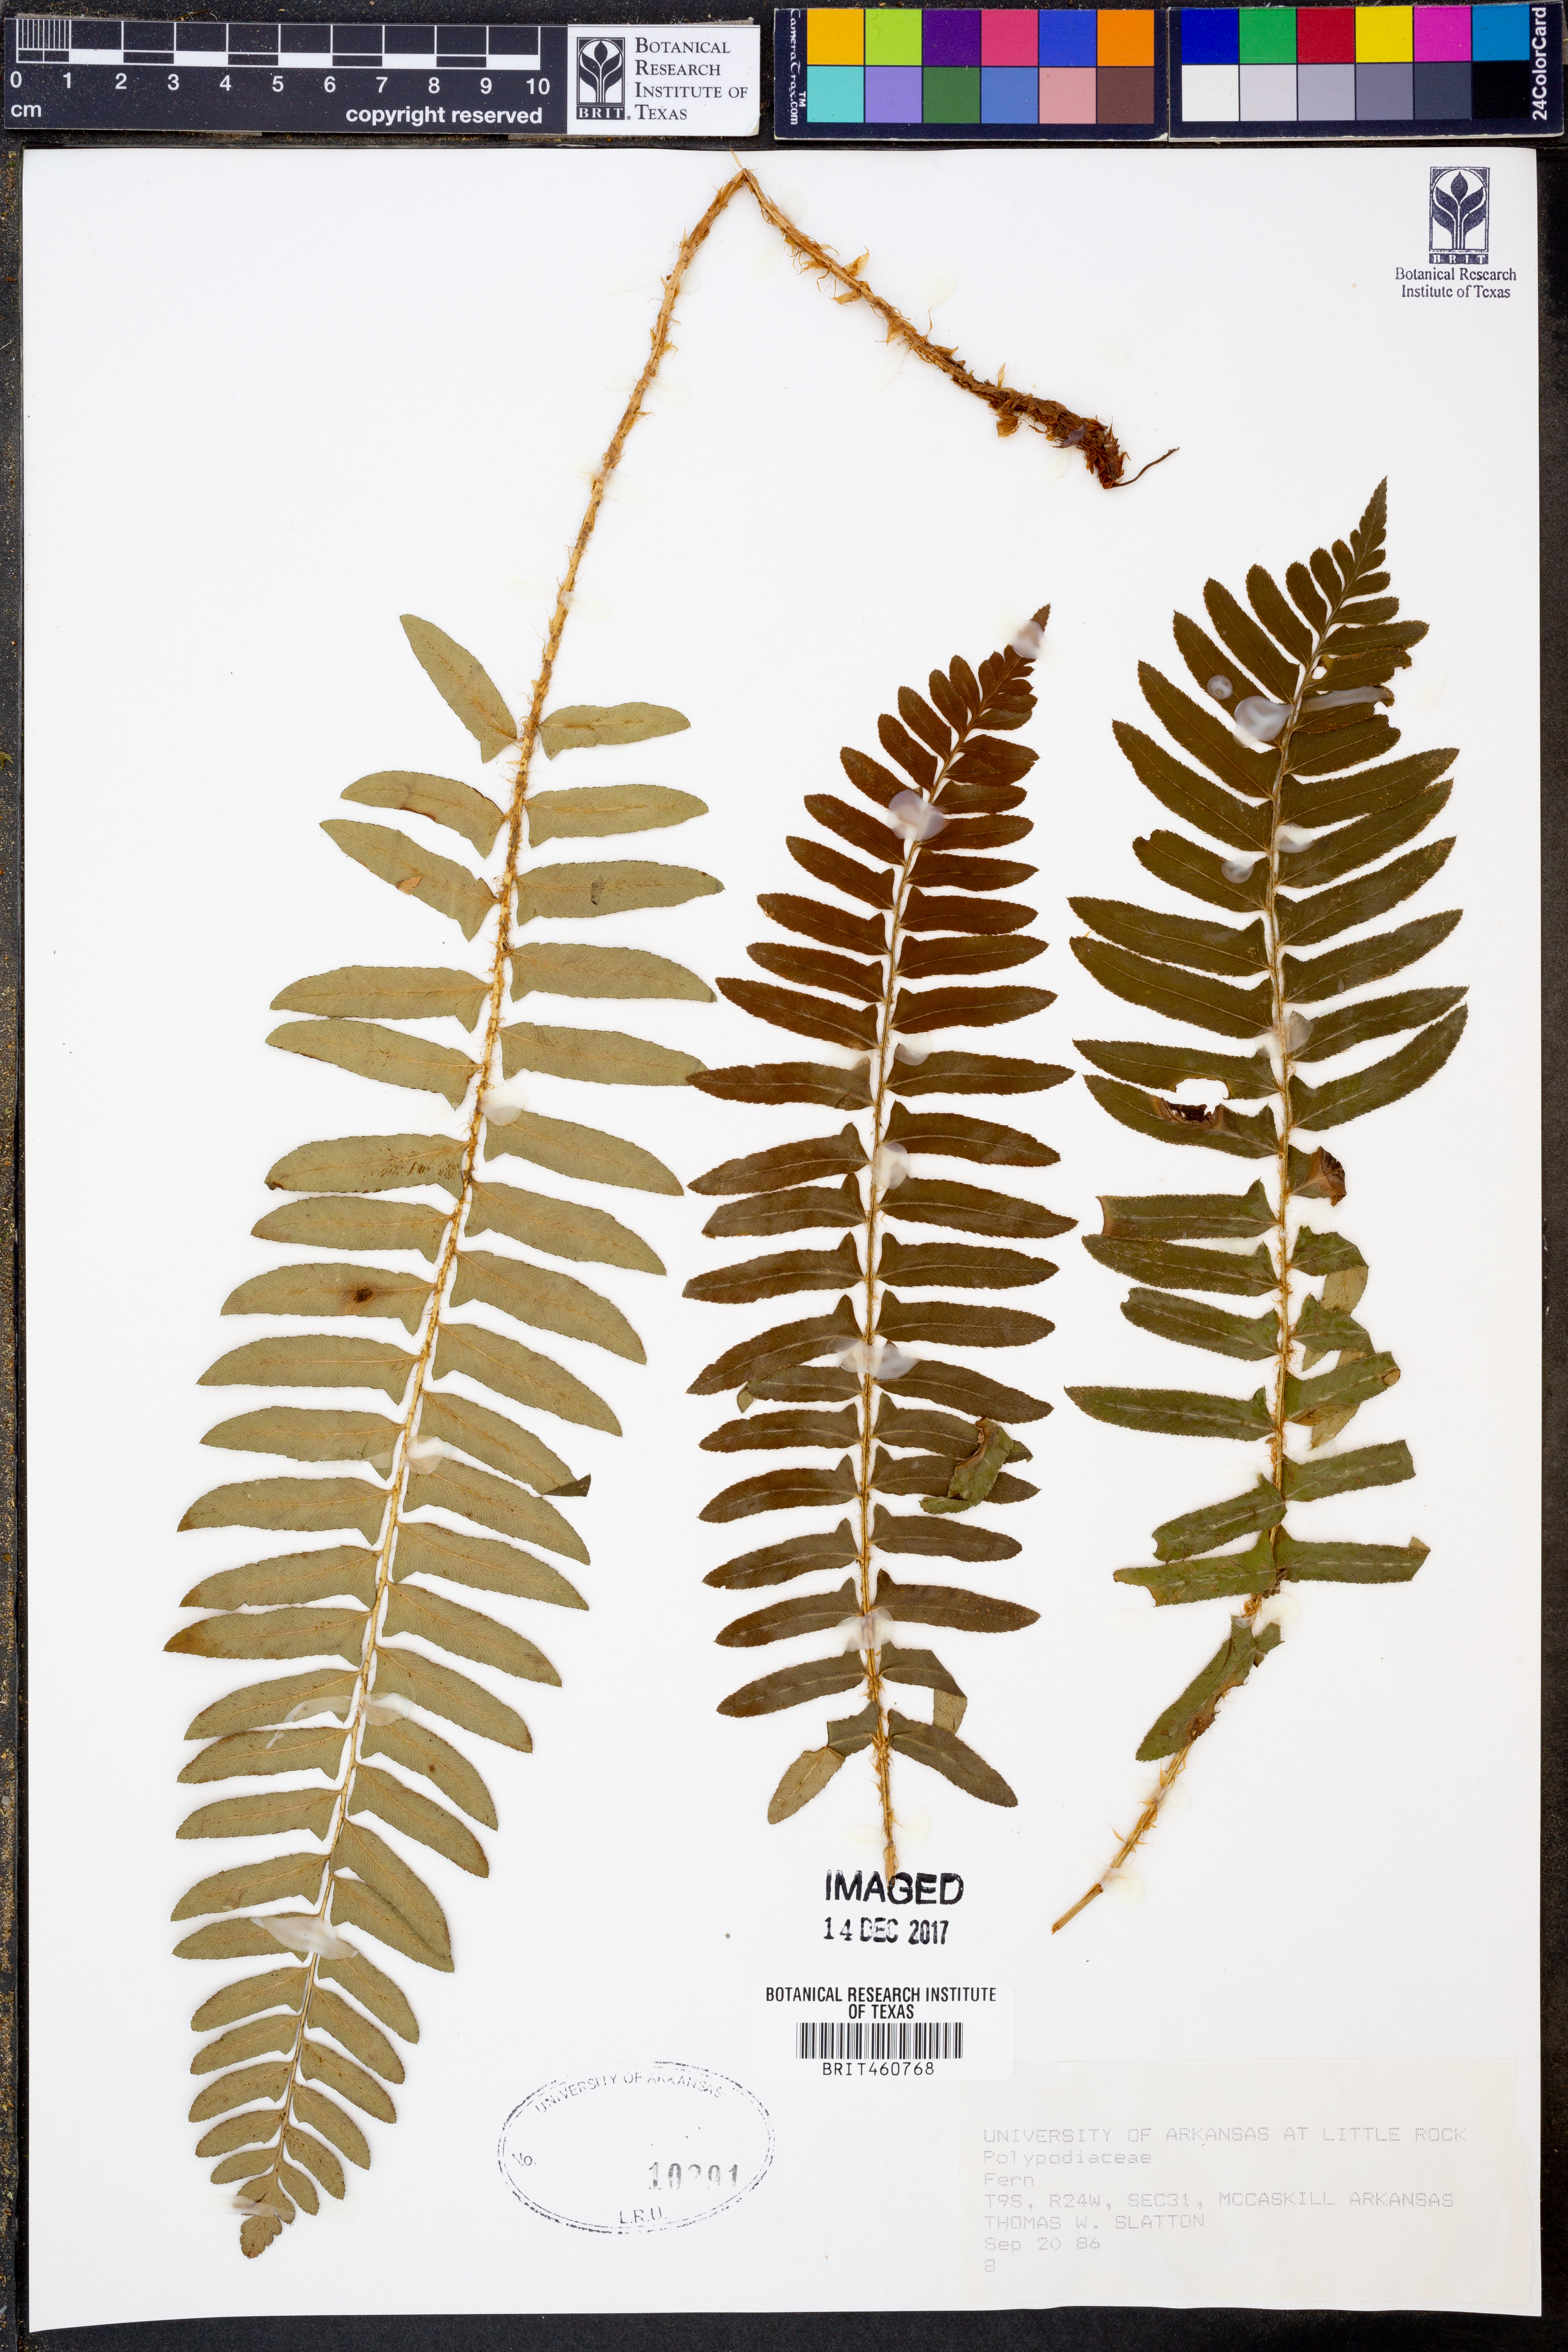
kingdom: Plantae
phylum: Tracheophyta
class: Polypodiopsida
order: Polypodiales
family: Polypodiaceae
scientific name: Polypodiaceae
